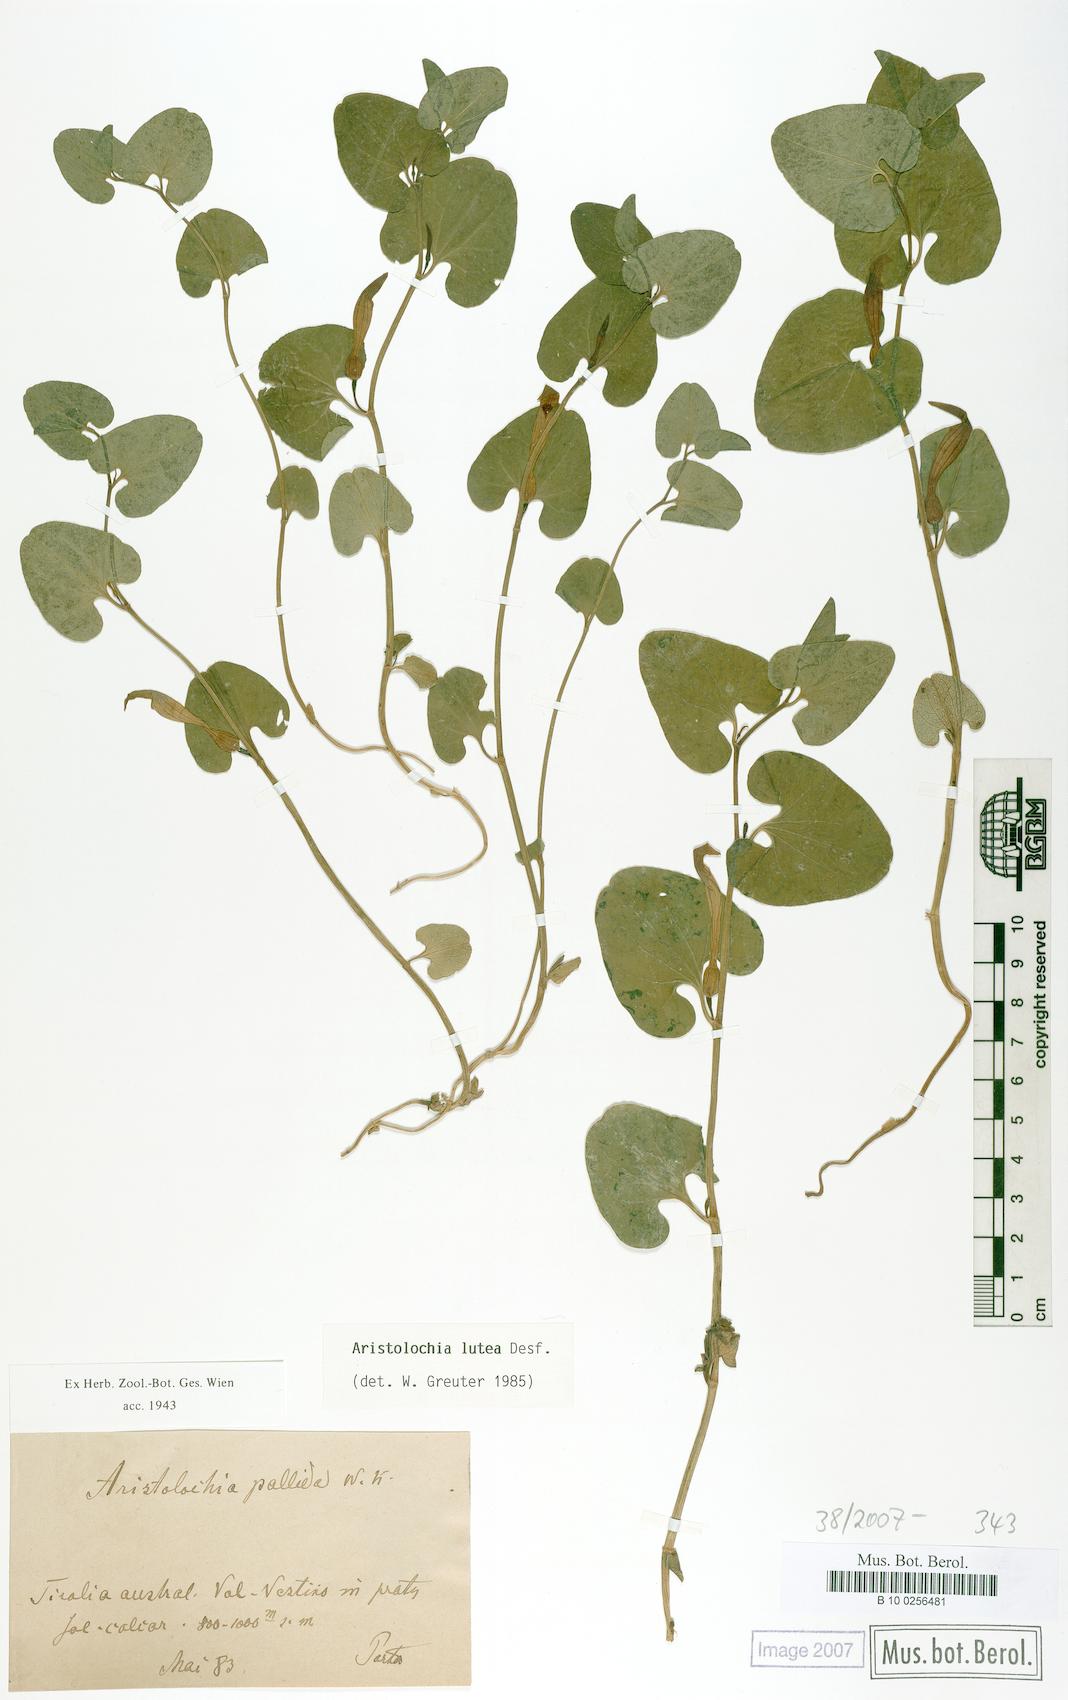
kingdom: Plantae
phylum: Tracheophyta
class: Magnoliopsida
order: Piperales
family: Aristolochiaceae
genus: Aristolochia
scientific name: Aristolochia lutea
